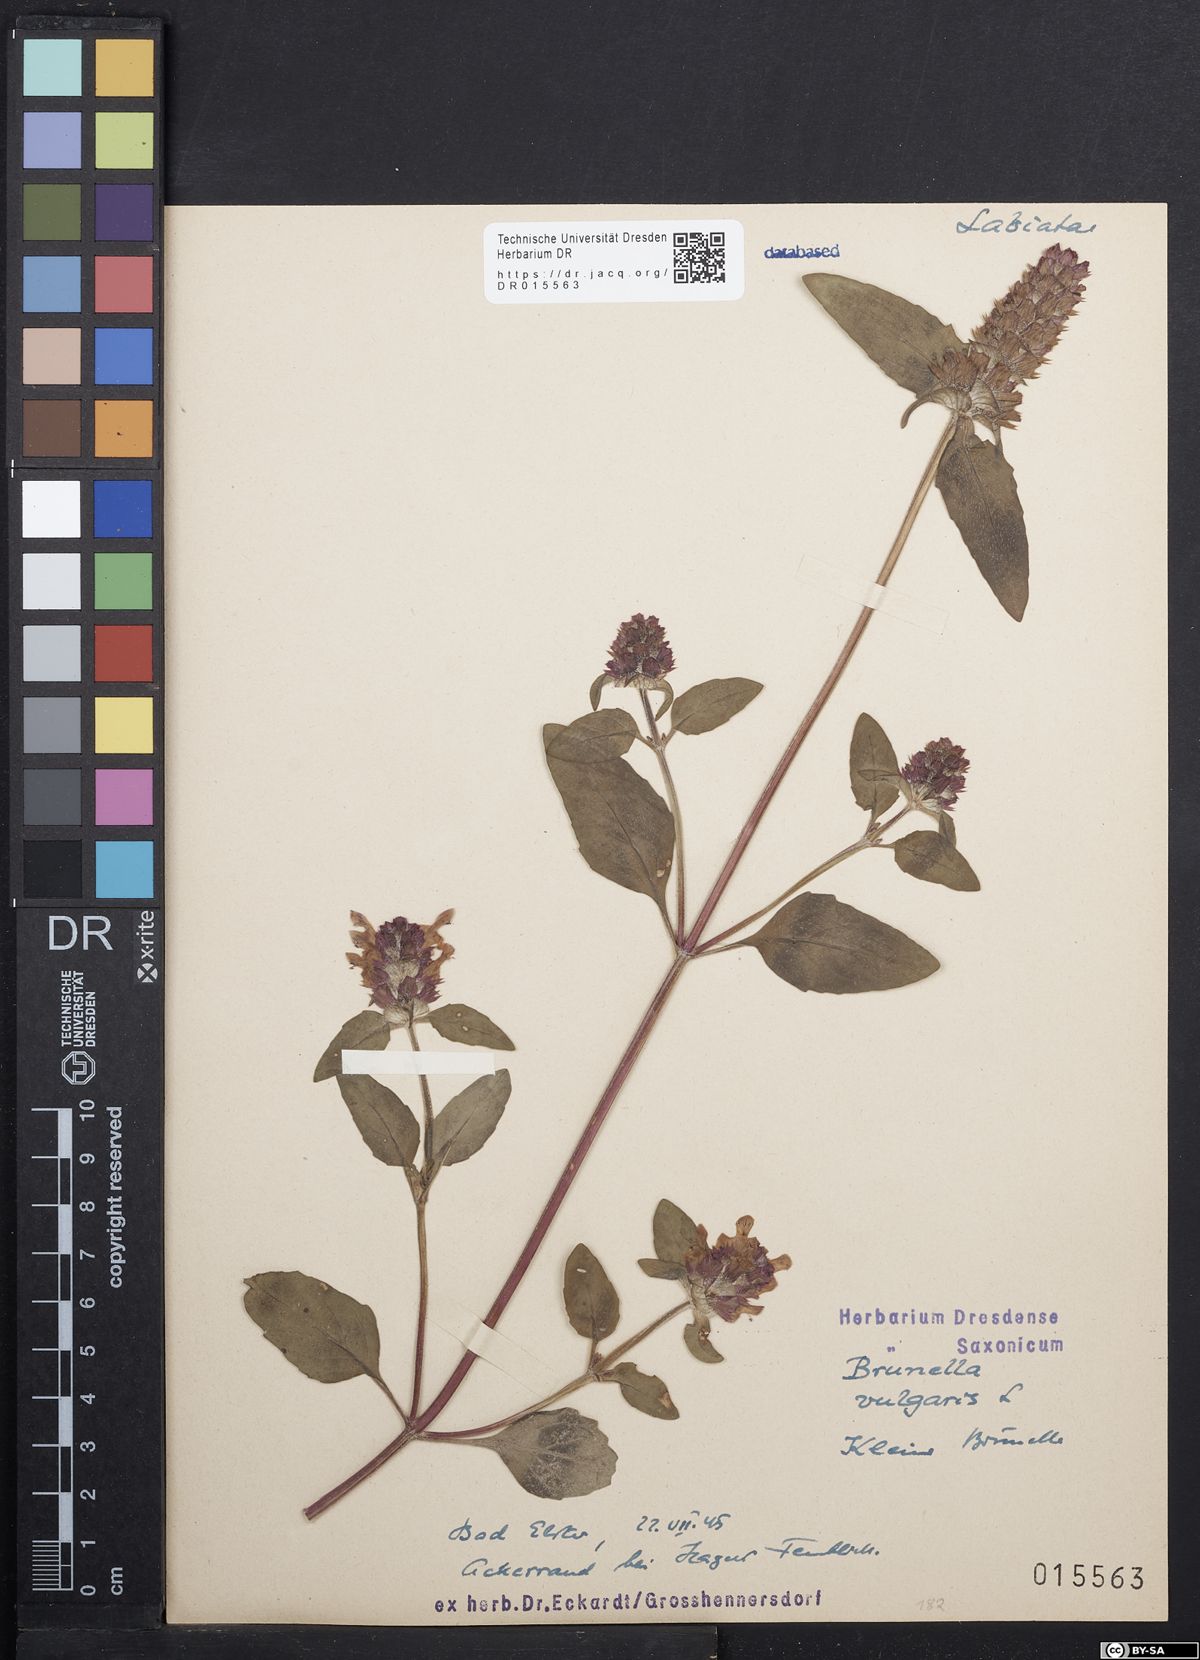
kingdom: Plantae
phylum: Tracheophyta
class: Magnoliopsida
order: Lamiales
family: Lamiaceae
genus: Prunella
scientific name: Prunella vulgaris
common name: Heal-all
